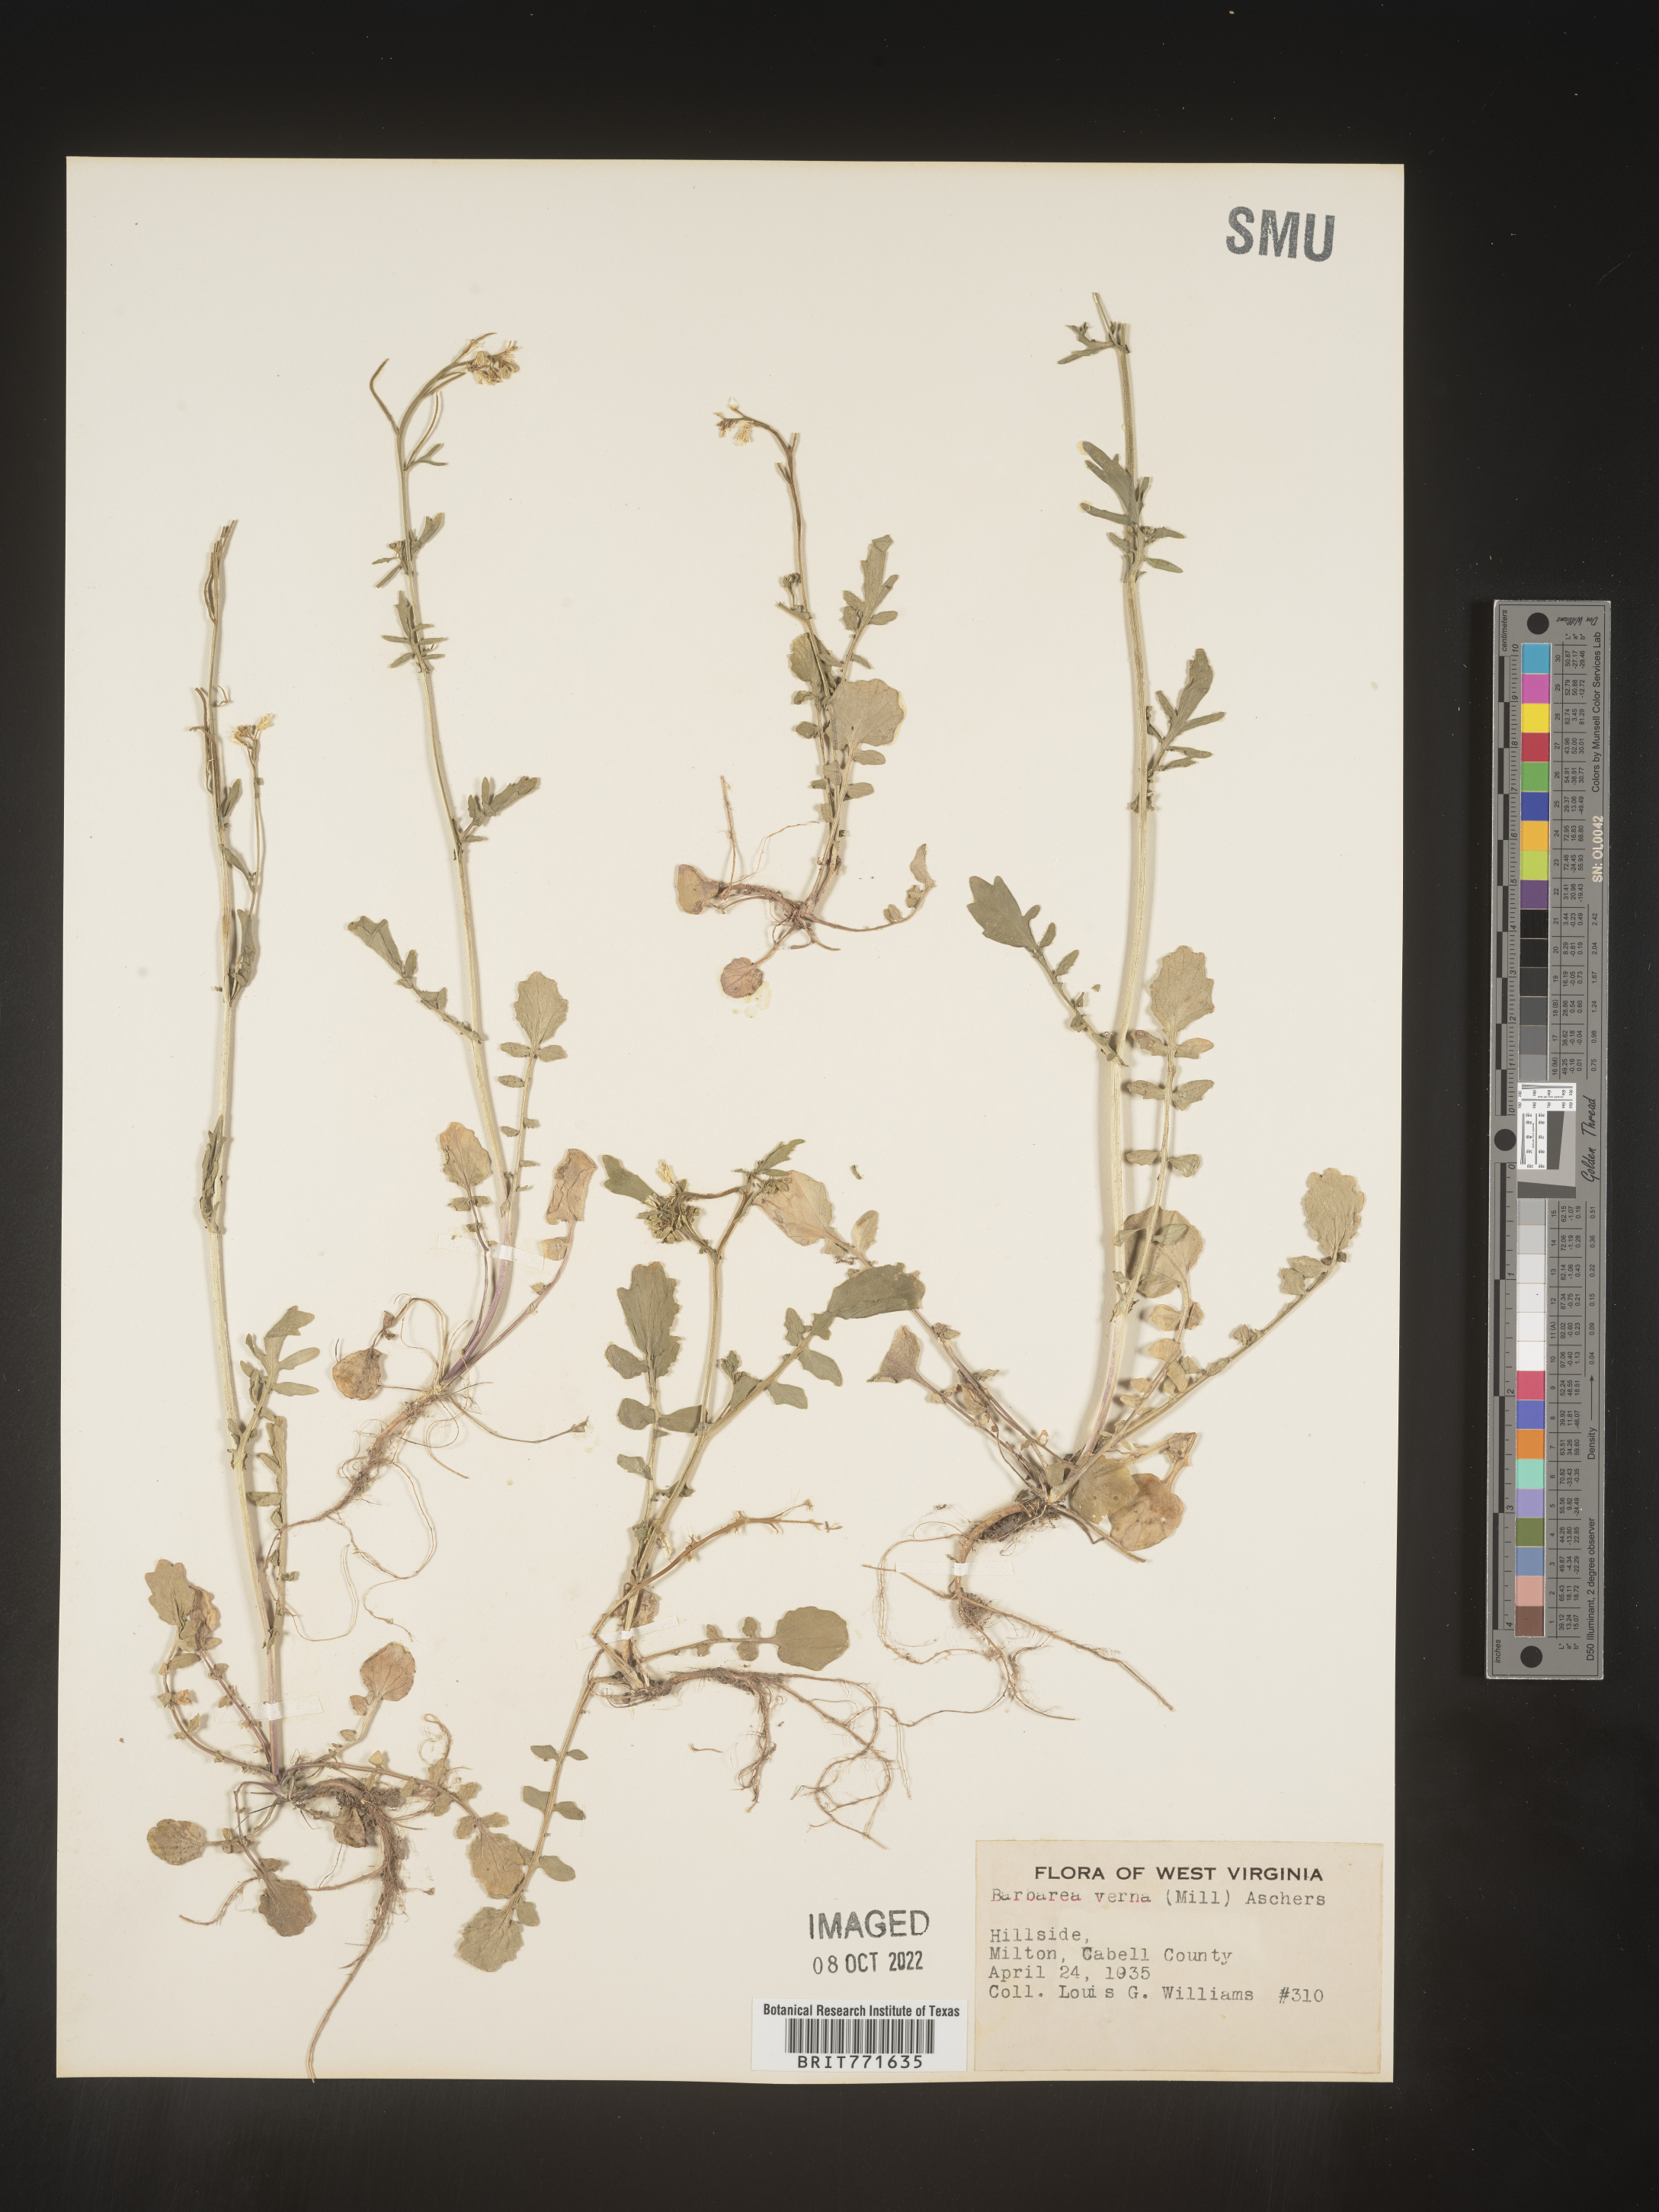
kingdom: Plantae
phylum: Tracheophyta
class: Magnoliopsida
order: Brassicales
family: Brassicaceae
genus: Barbarea
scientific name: Barbarea verna
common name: American cress
